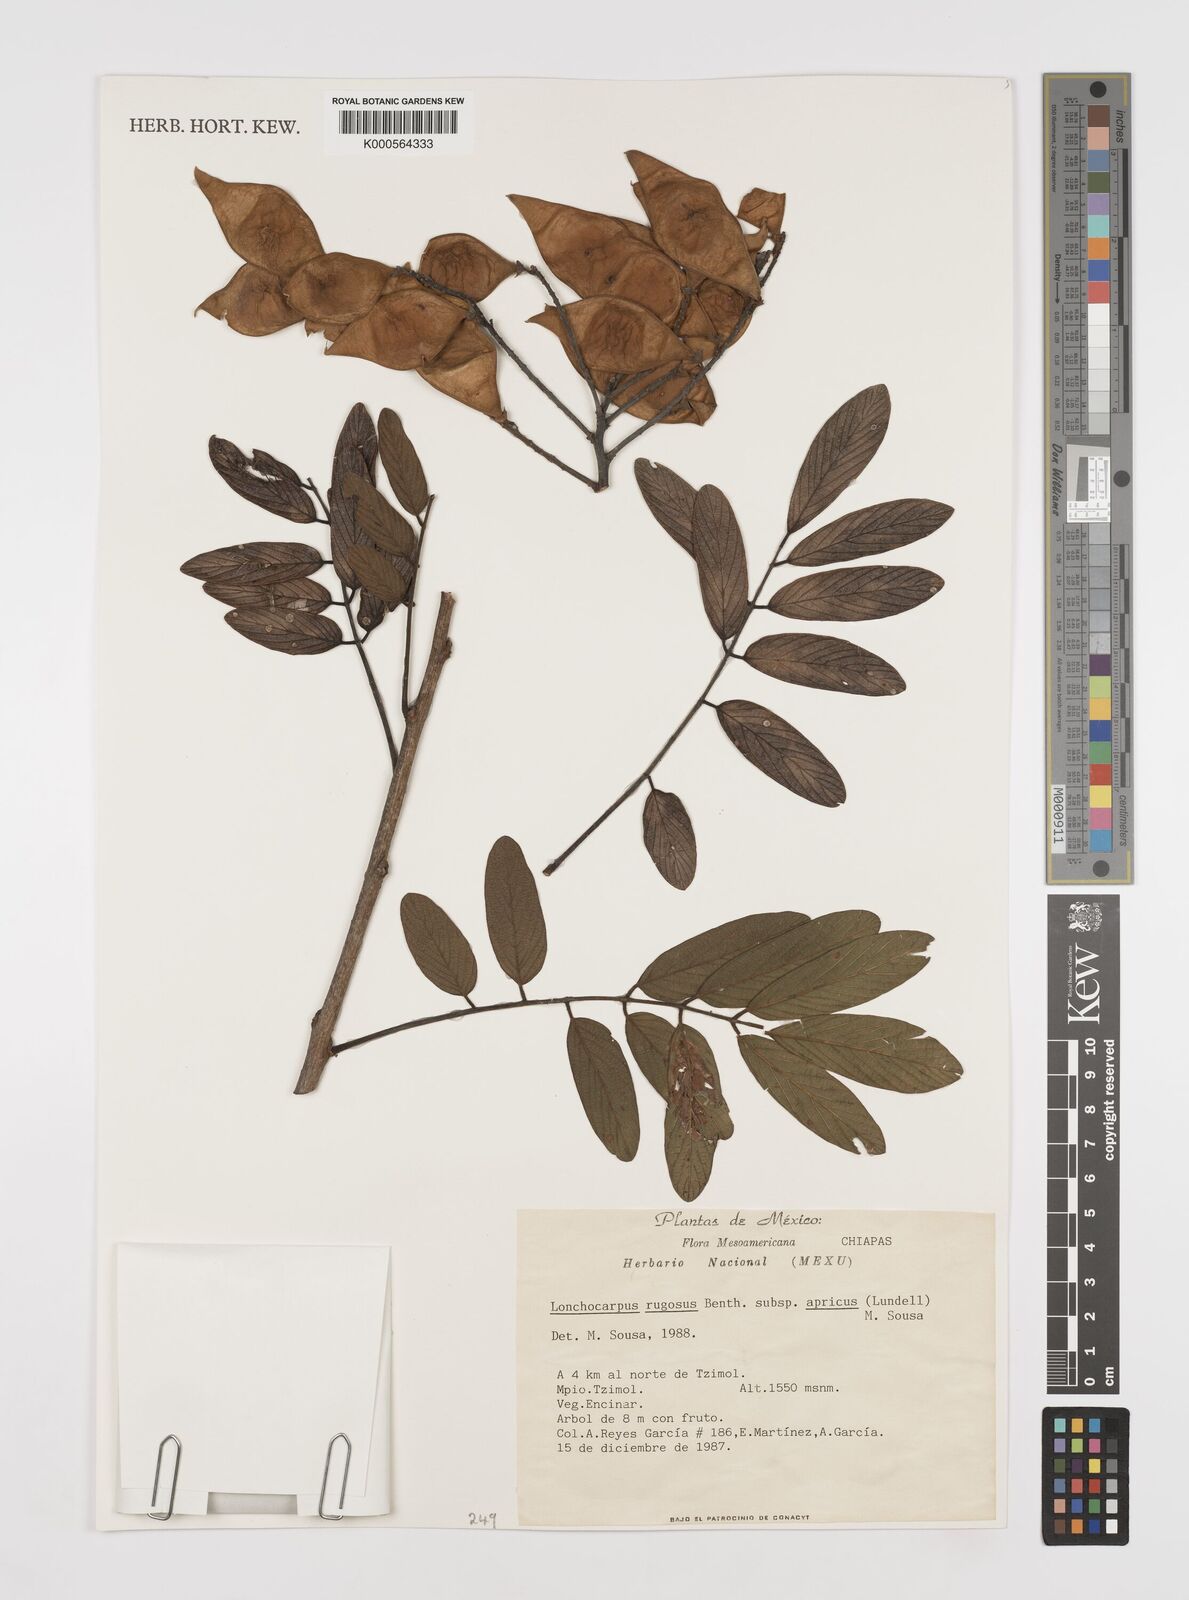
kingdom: Plantae
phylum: Tracheophyta
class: Magnoliopsida
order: Fabales
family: Fabaceae
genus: Lonchocarpus
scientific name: Lonchocarpus rugosus
